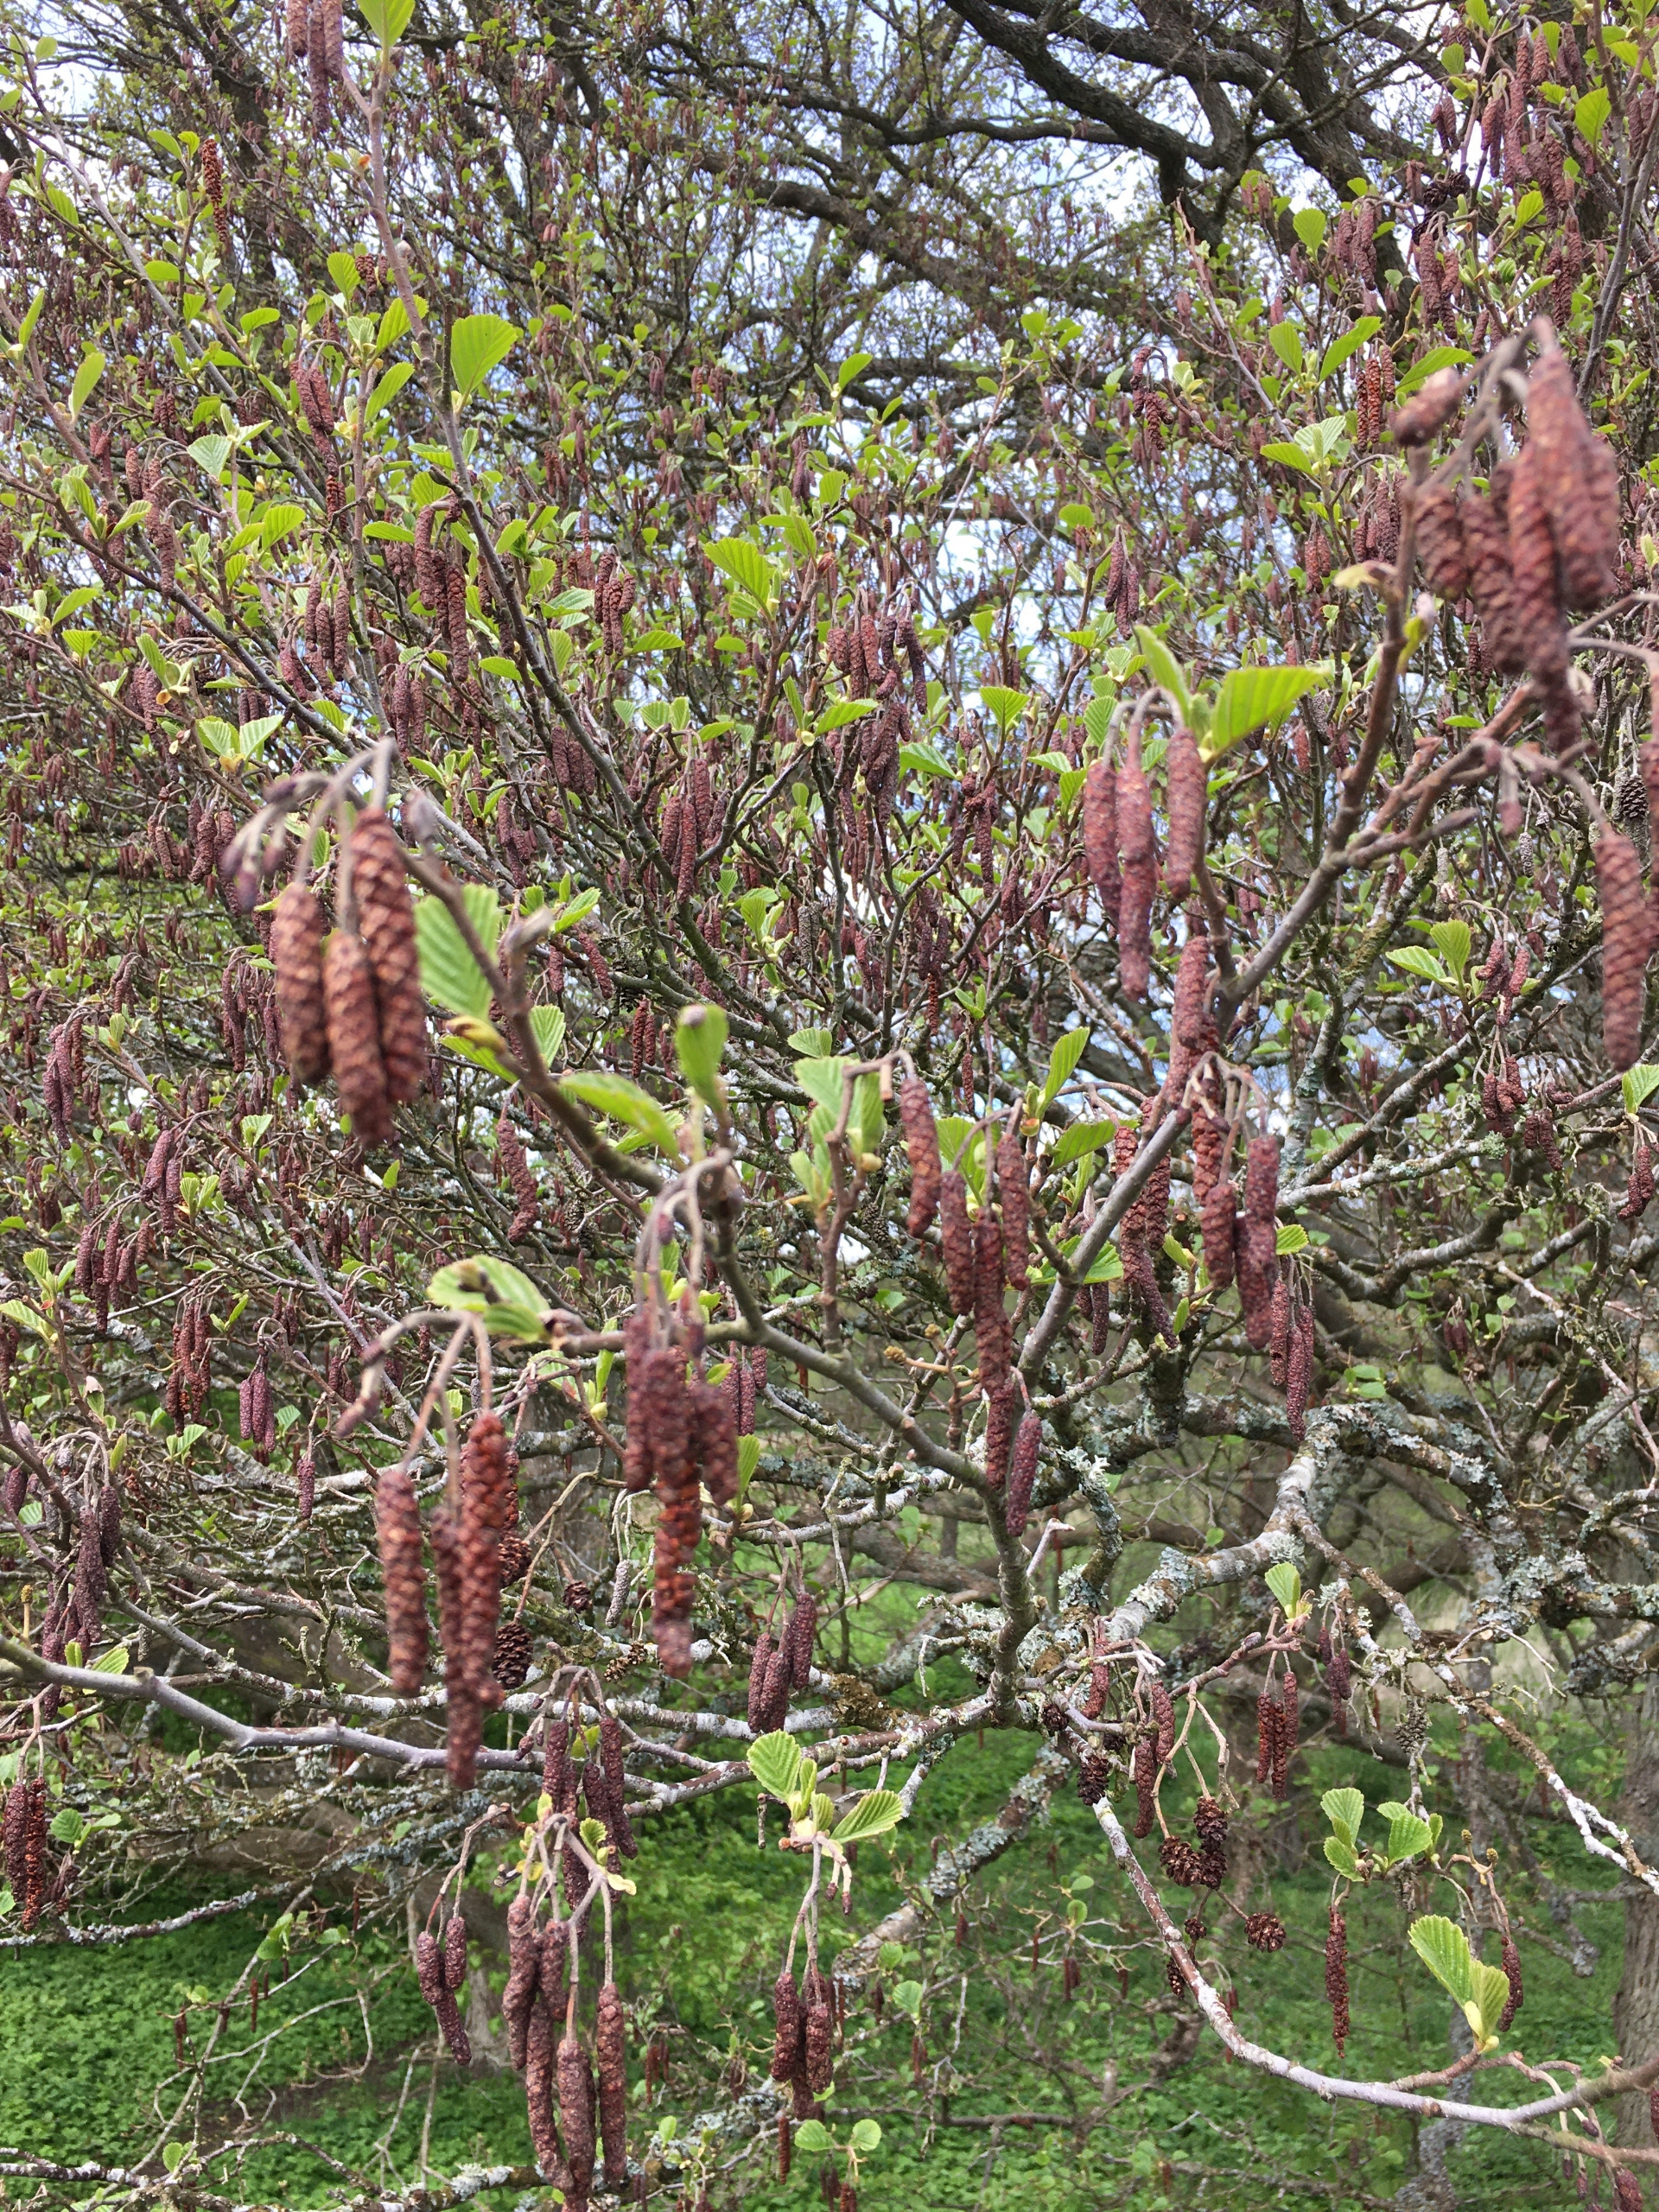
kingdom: Plantae
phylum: Tracheophyta
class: Magnoliopsida
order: Fagales
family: Betulaceae
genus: Alnus
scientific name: Alnus glutinosa
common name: Rød-el
